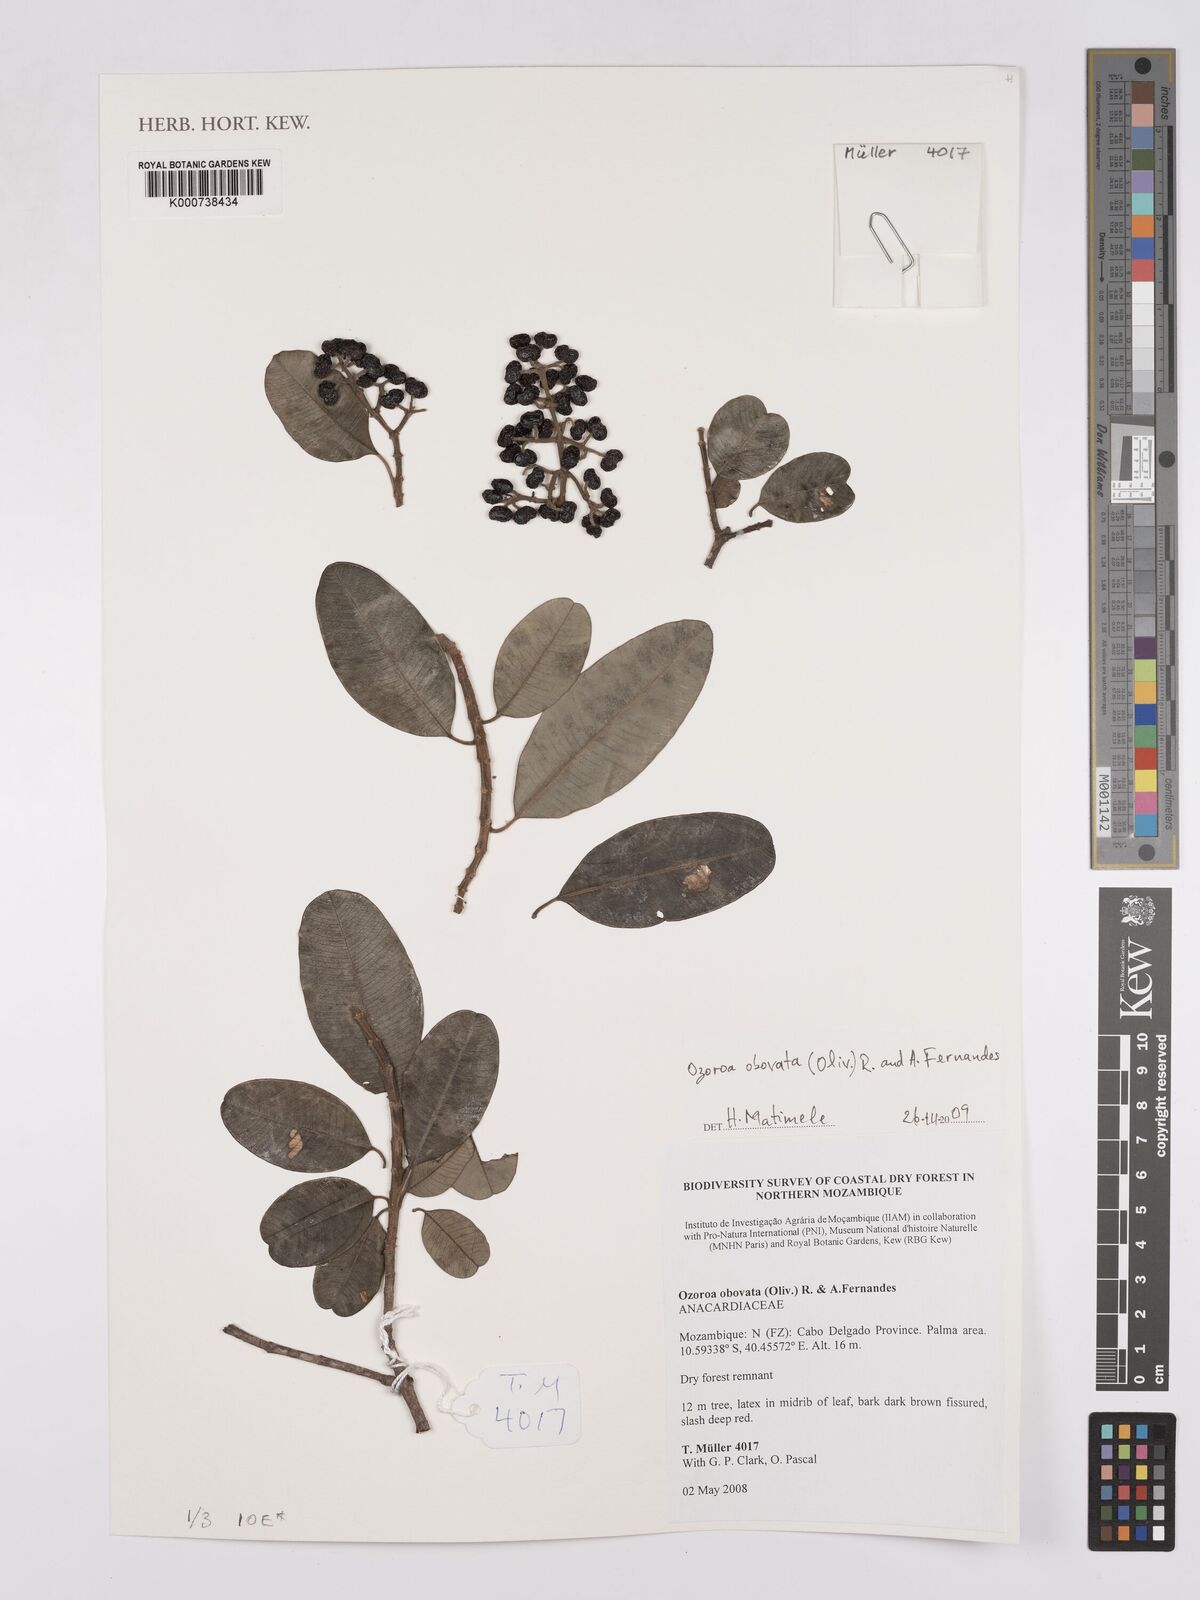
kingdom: Plantae
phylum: Tracheophyta
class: Magnoliopsida
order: Sapindales
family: Anacardiaceae
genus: Ozoroa
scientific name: Ozoroa obovata
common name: Broad-leaved resin tree
